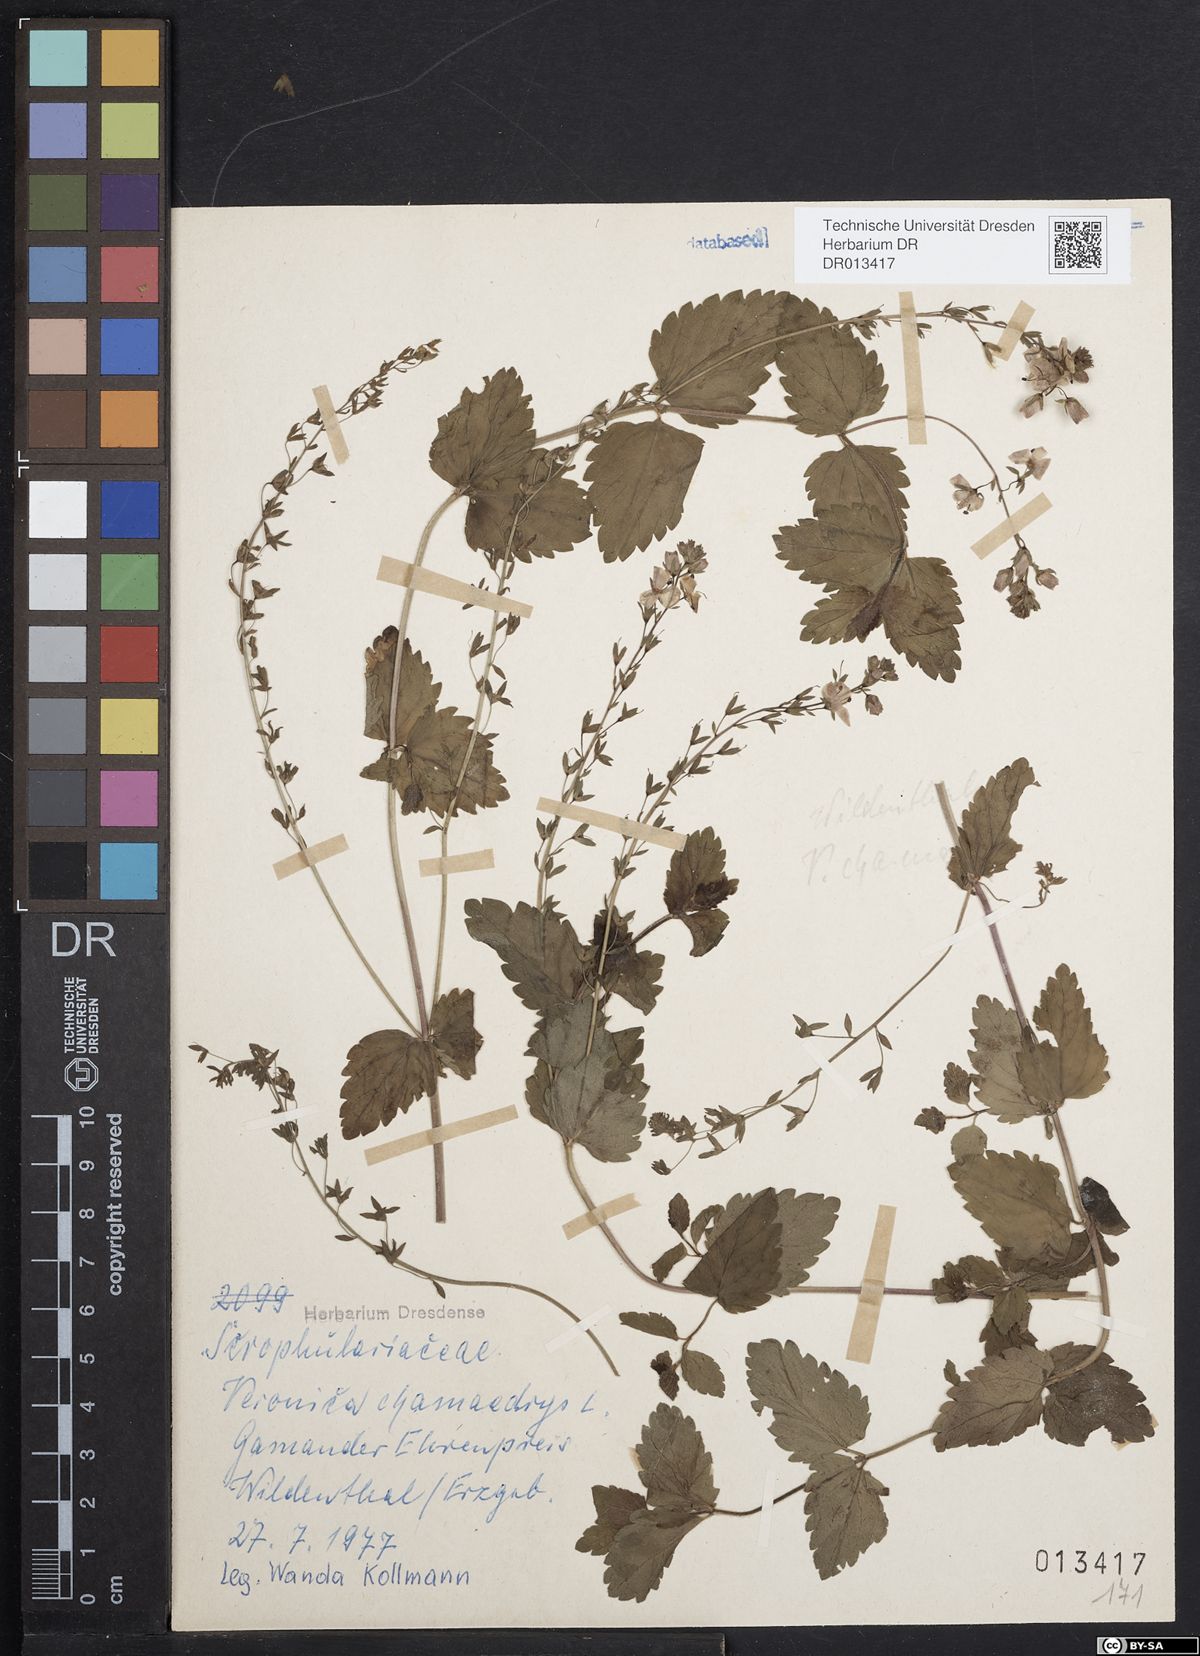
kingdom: Plantae
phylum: Tracheophyta
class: Magnoliopsida
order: Lamiales
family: Plantaginaceae
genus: Veronica
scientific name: Veronica chamaedrys
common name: Germander speedwell
